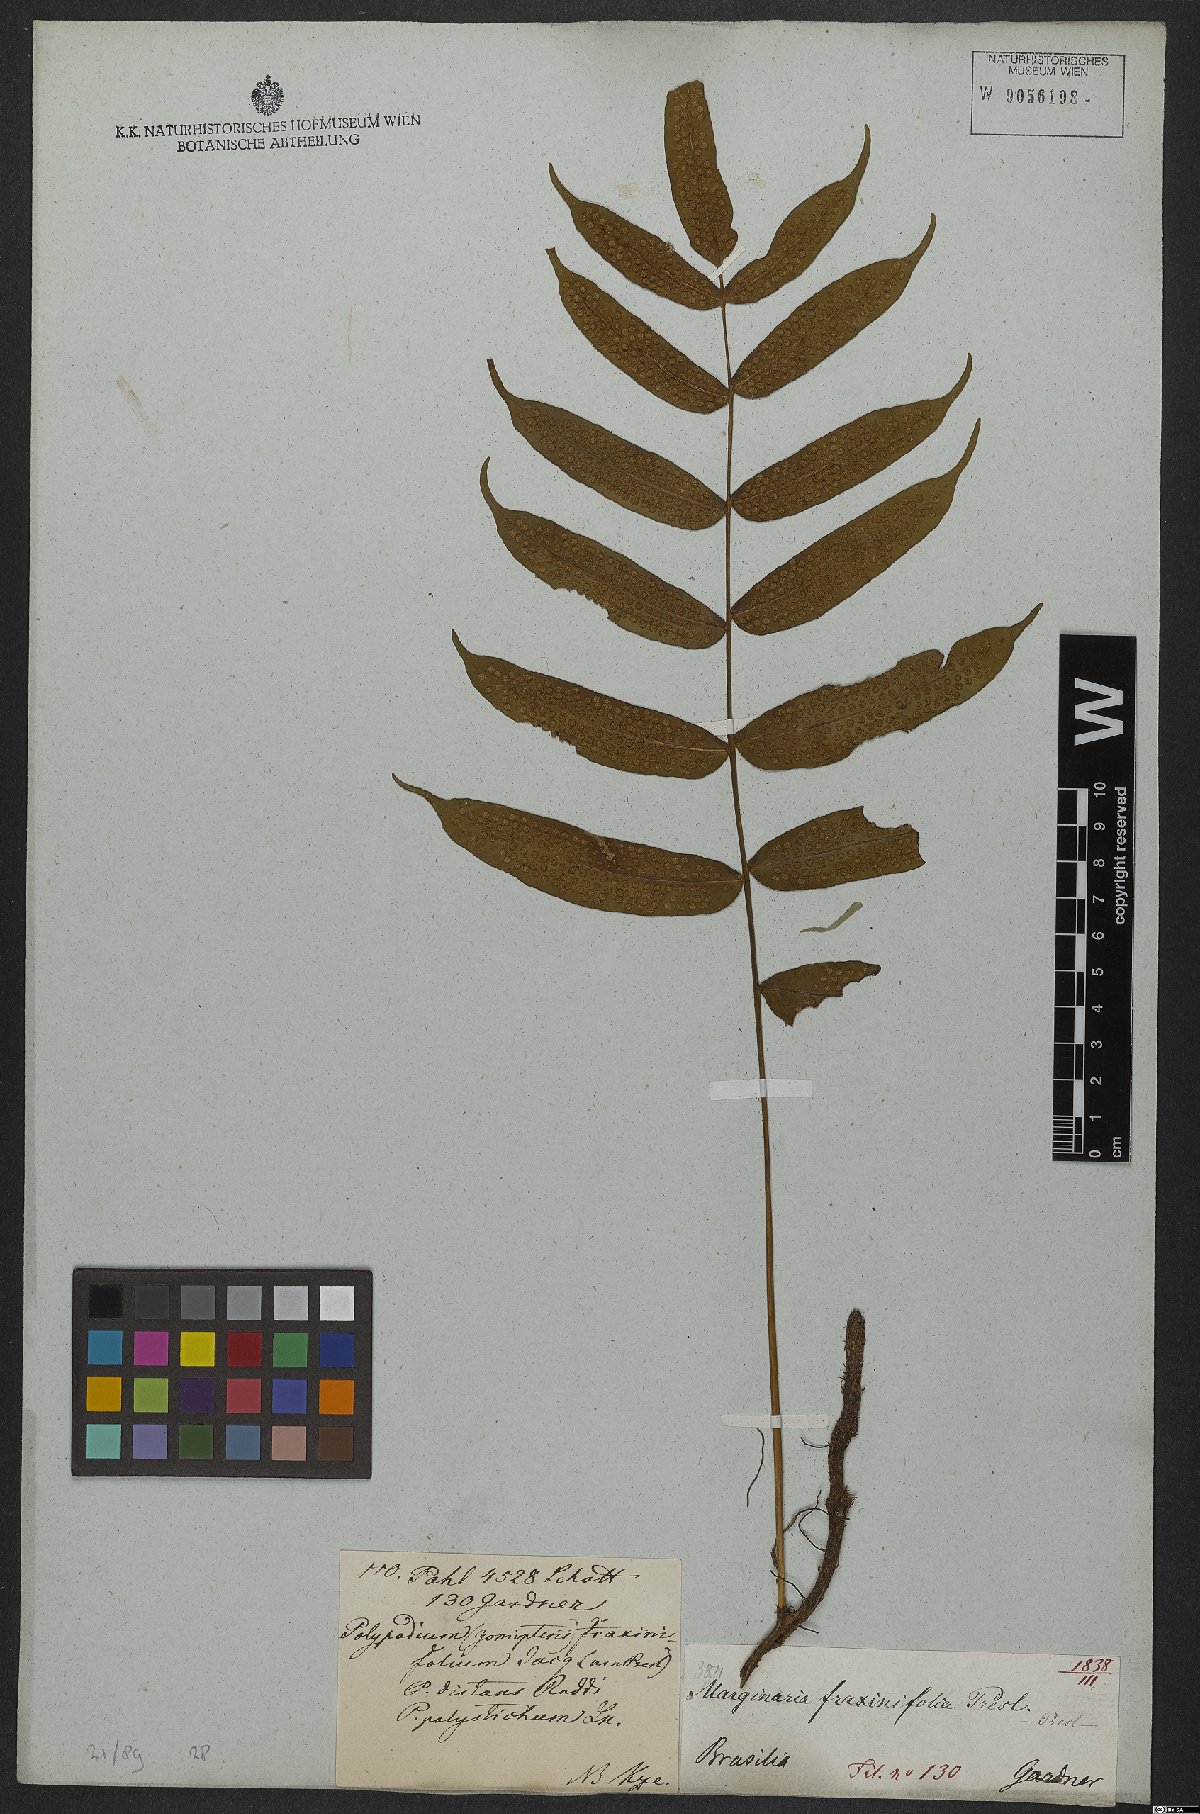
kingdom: Plantae
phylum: Tracheophyta
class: Polypodiopsida
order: Polypodiales
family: Polypodiaceae
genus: Serpocaulon
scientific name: Serpocaulon fraxinifolium
